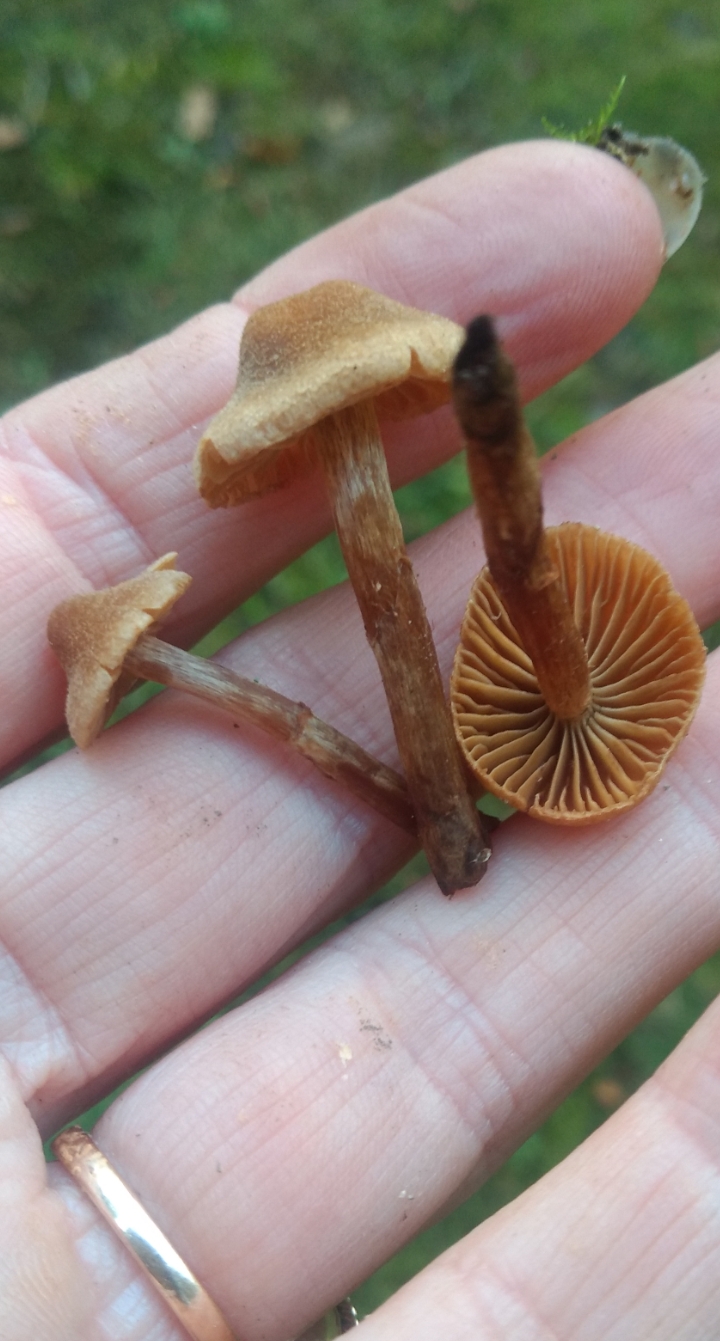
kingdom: Fungi
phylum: Basidiomycota
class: Agaricomycetes
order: Agaricales
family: Cortinariaceae
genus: Cortinarius
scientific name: Cortinarius
